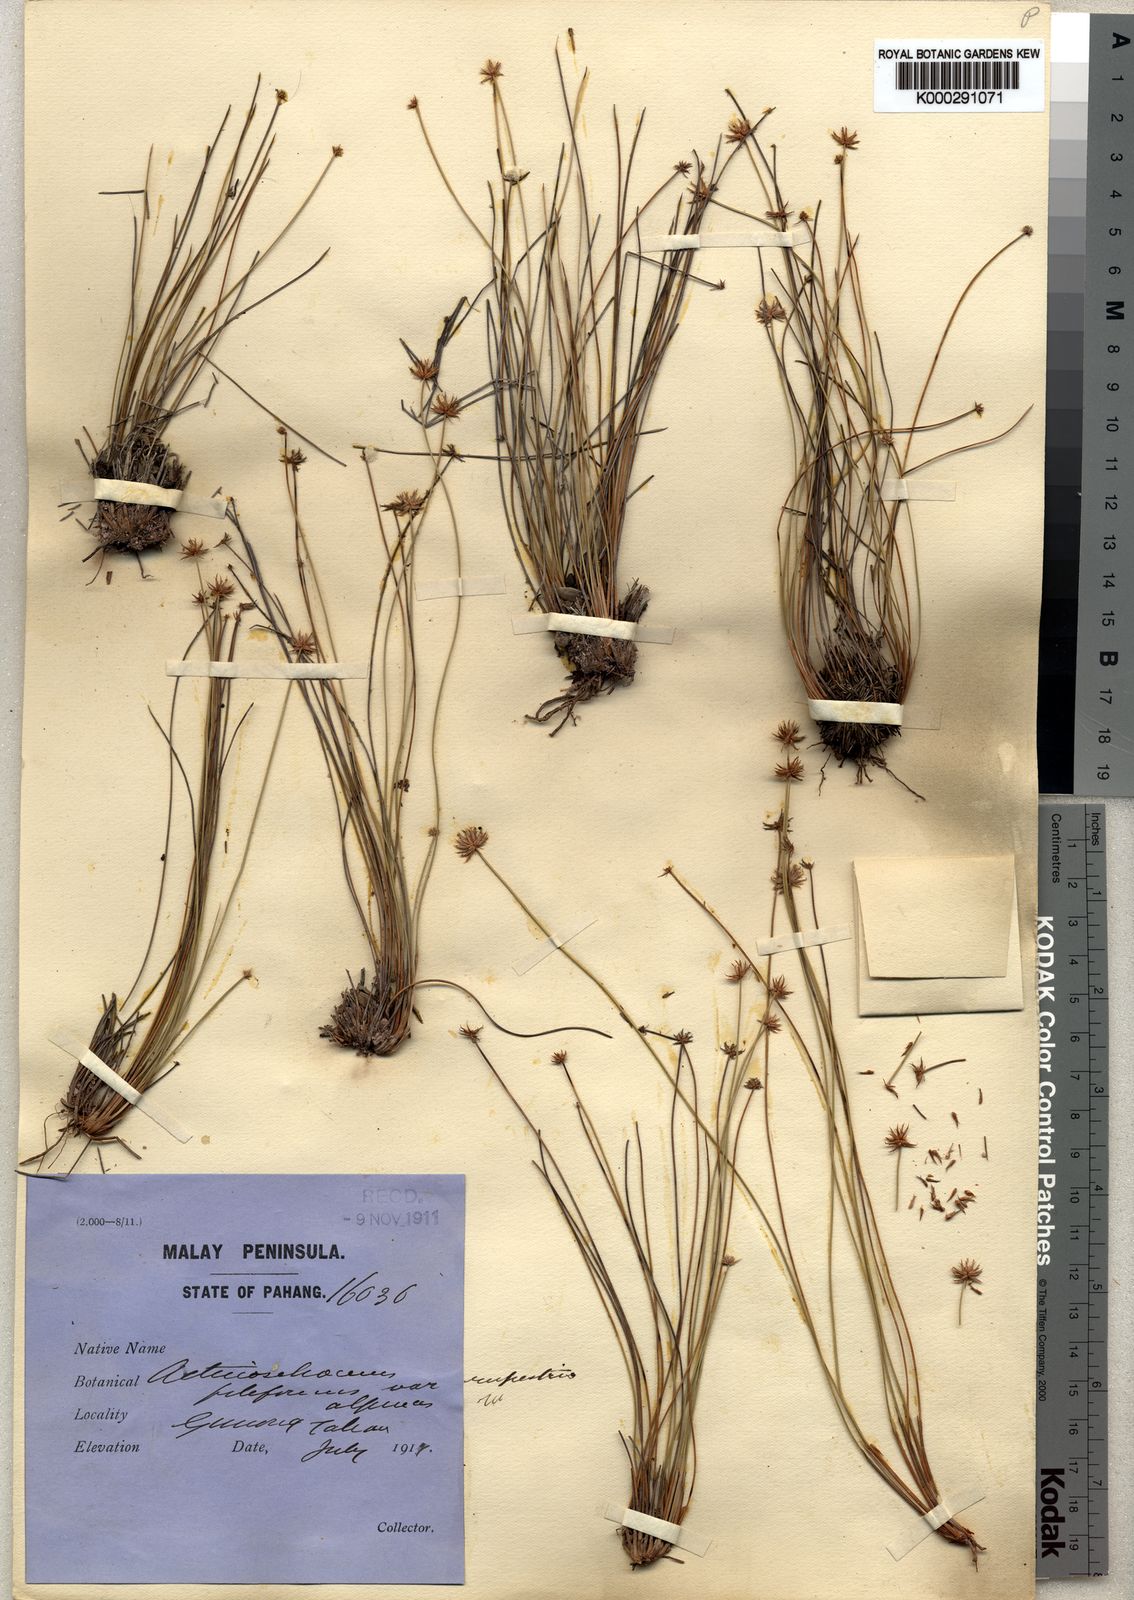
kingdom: Plantae
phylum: Tracheophyta
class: Liliopsida
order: Poales
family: Cyperaceae
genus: Actinoschoenus
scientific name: Actinoschoenus aphyllus
